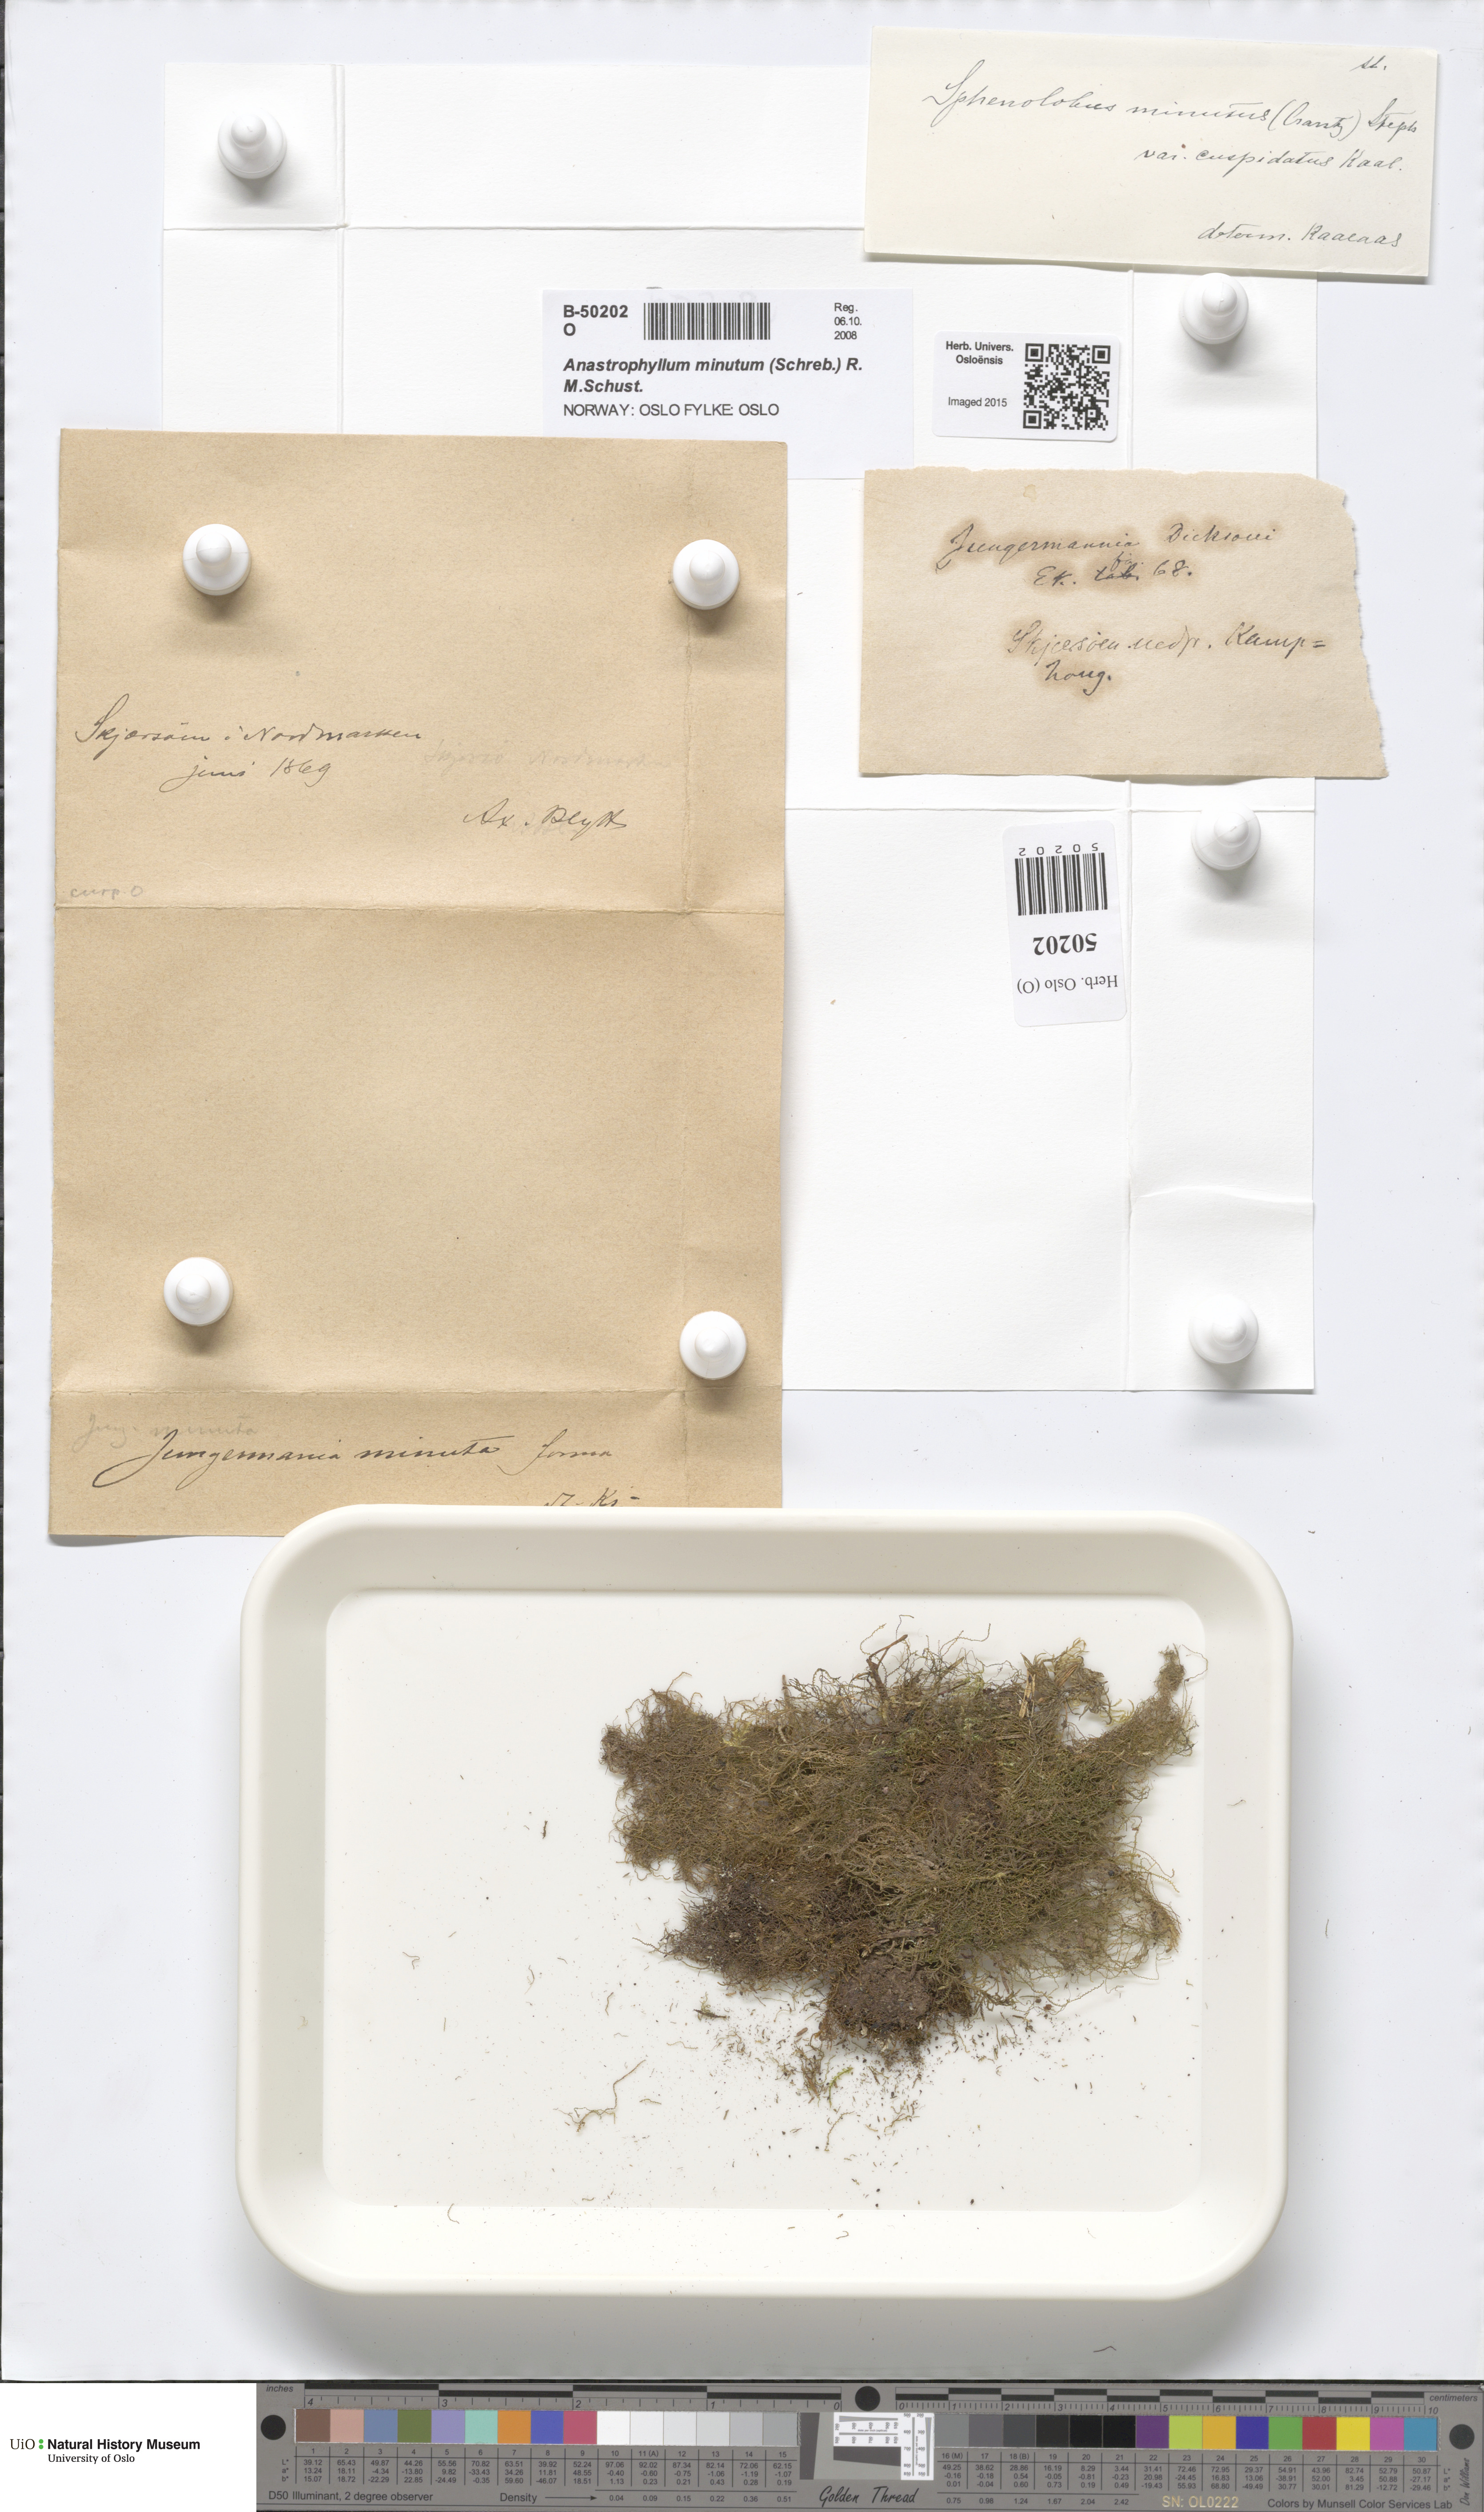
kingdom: Plantae
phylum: Marchantiophyta
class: Jungermanniopsida
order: Jungermanniales
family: Anastrophyllaceae
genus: Sphenolobus
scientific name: Sphenolobus minutus
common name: Comb notchwort
